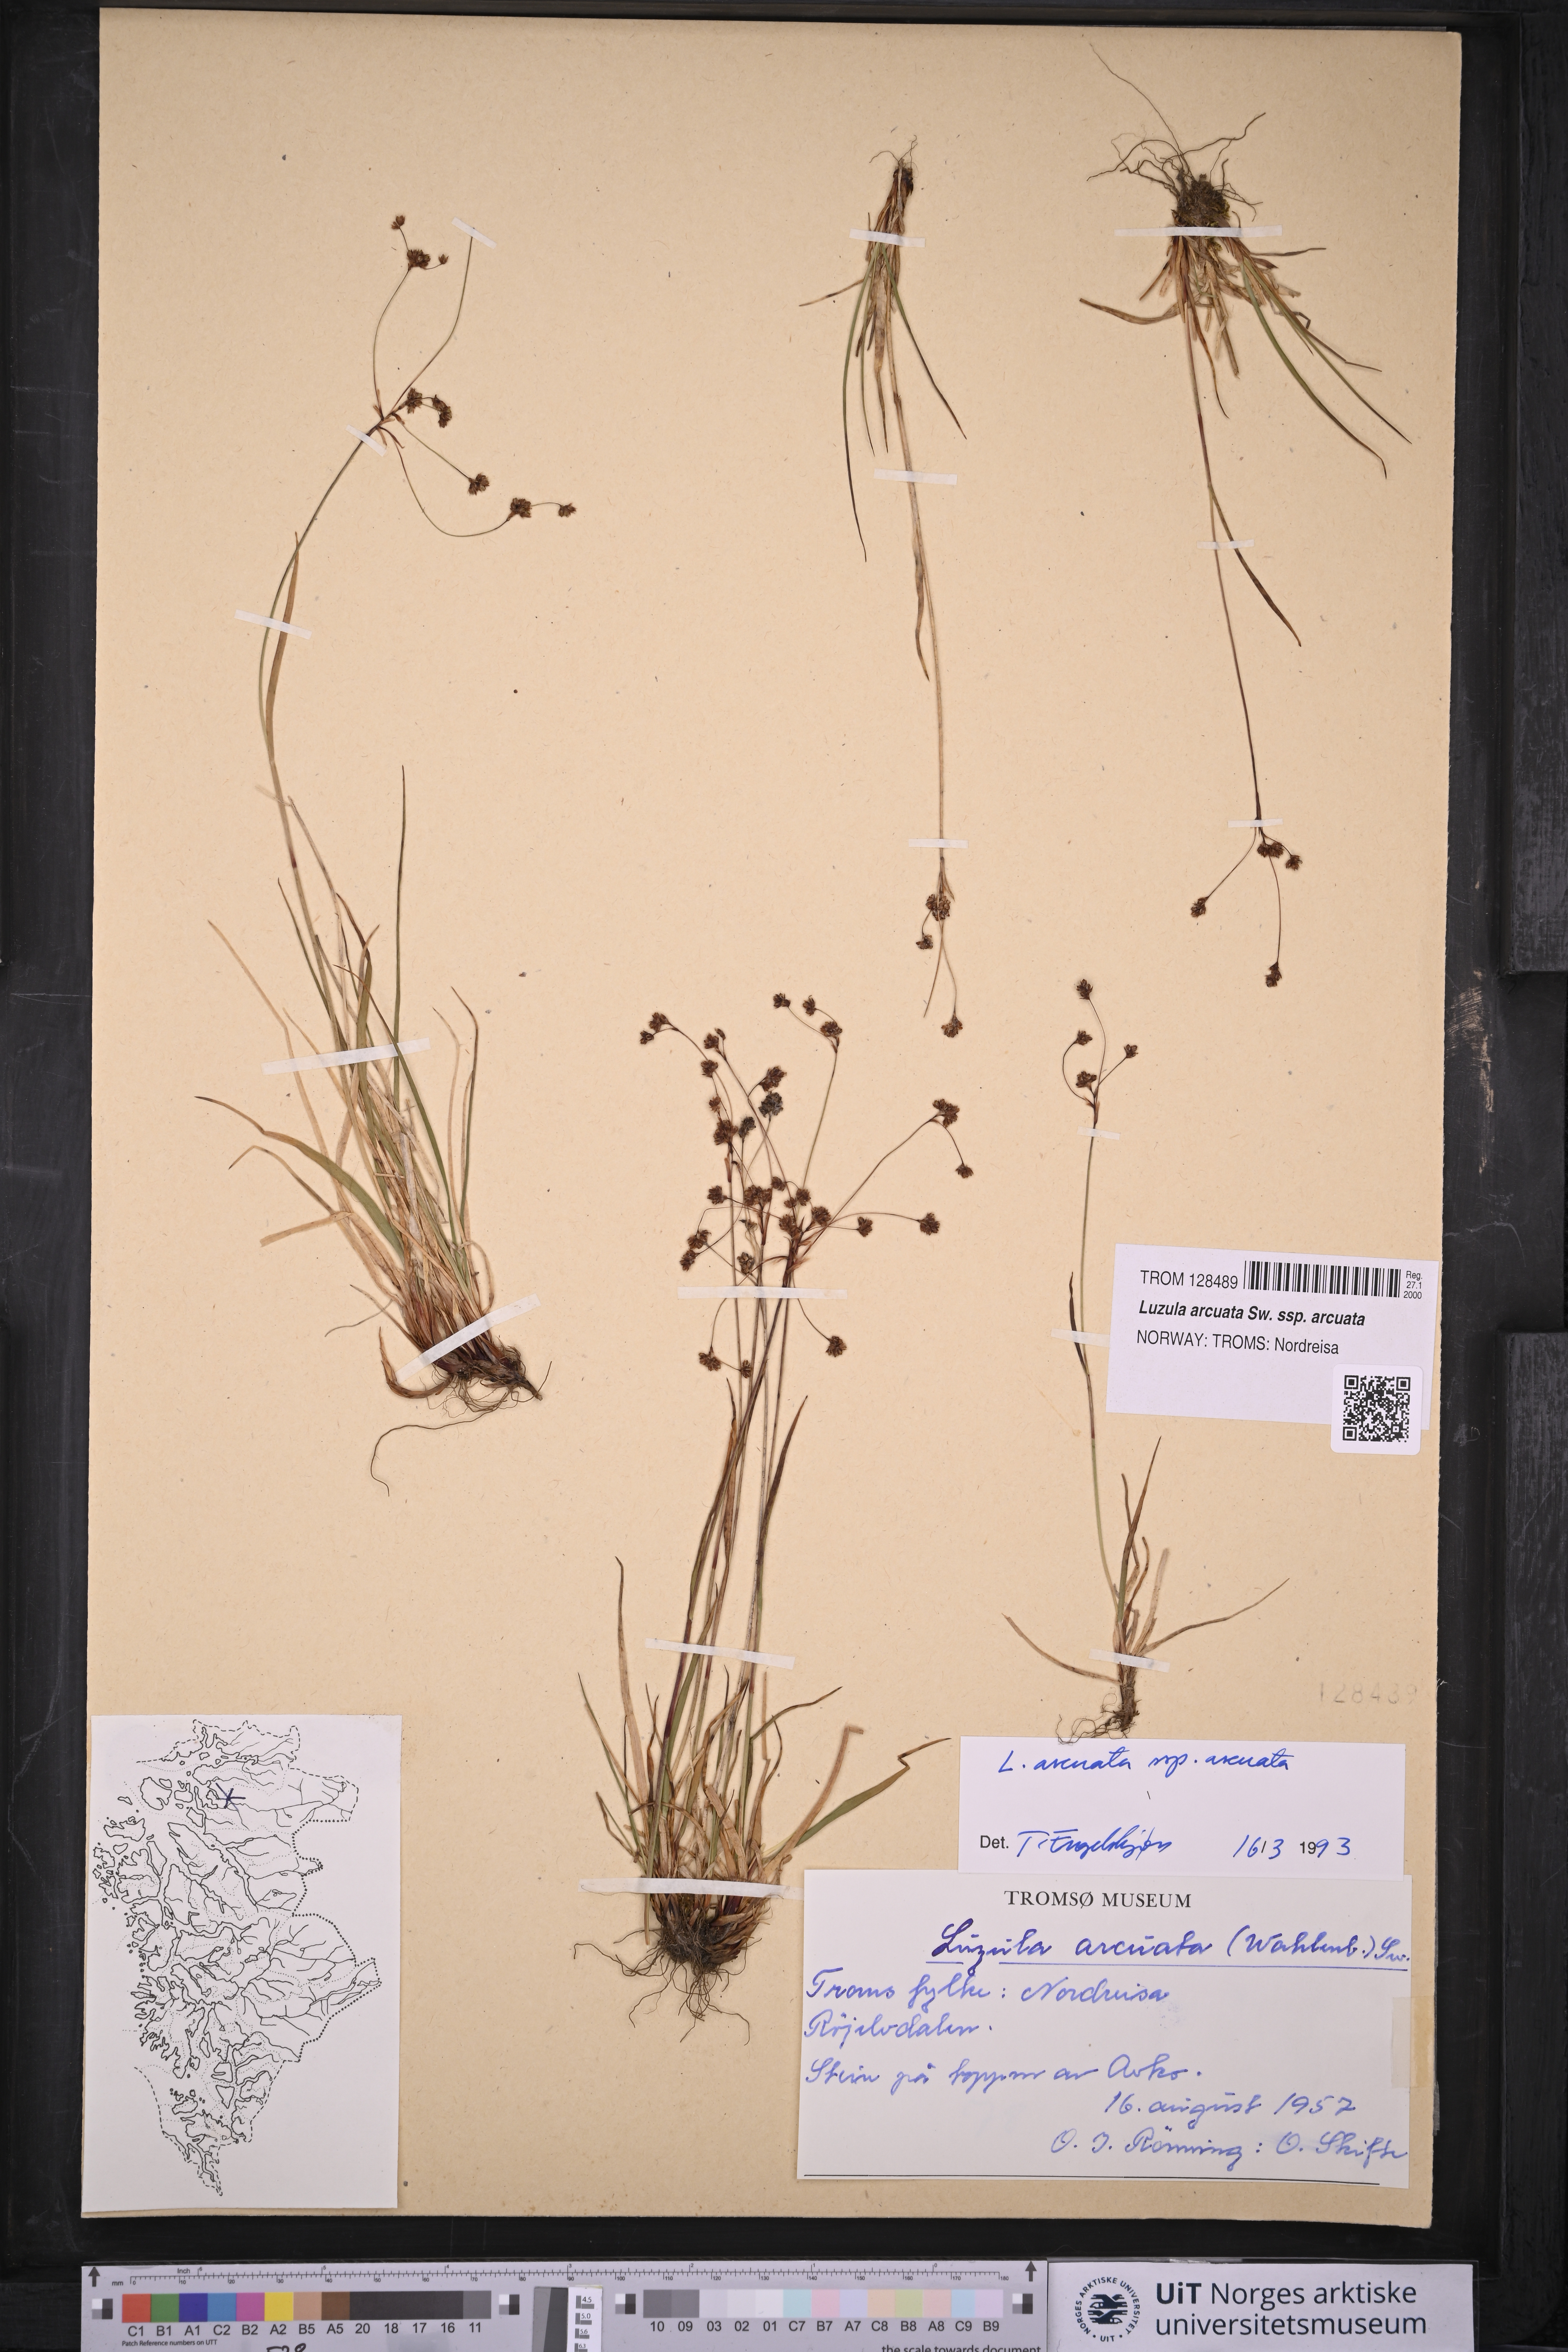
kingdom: Plantae
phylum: Tracheophyta
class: Liliopsida
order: Poales
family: Juncaceae
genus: Luzula
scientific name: Luzula arcuata
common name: Curved wood-rush
